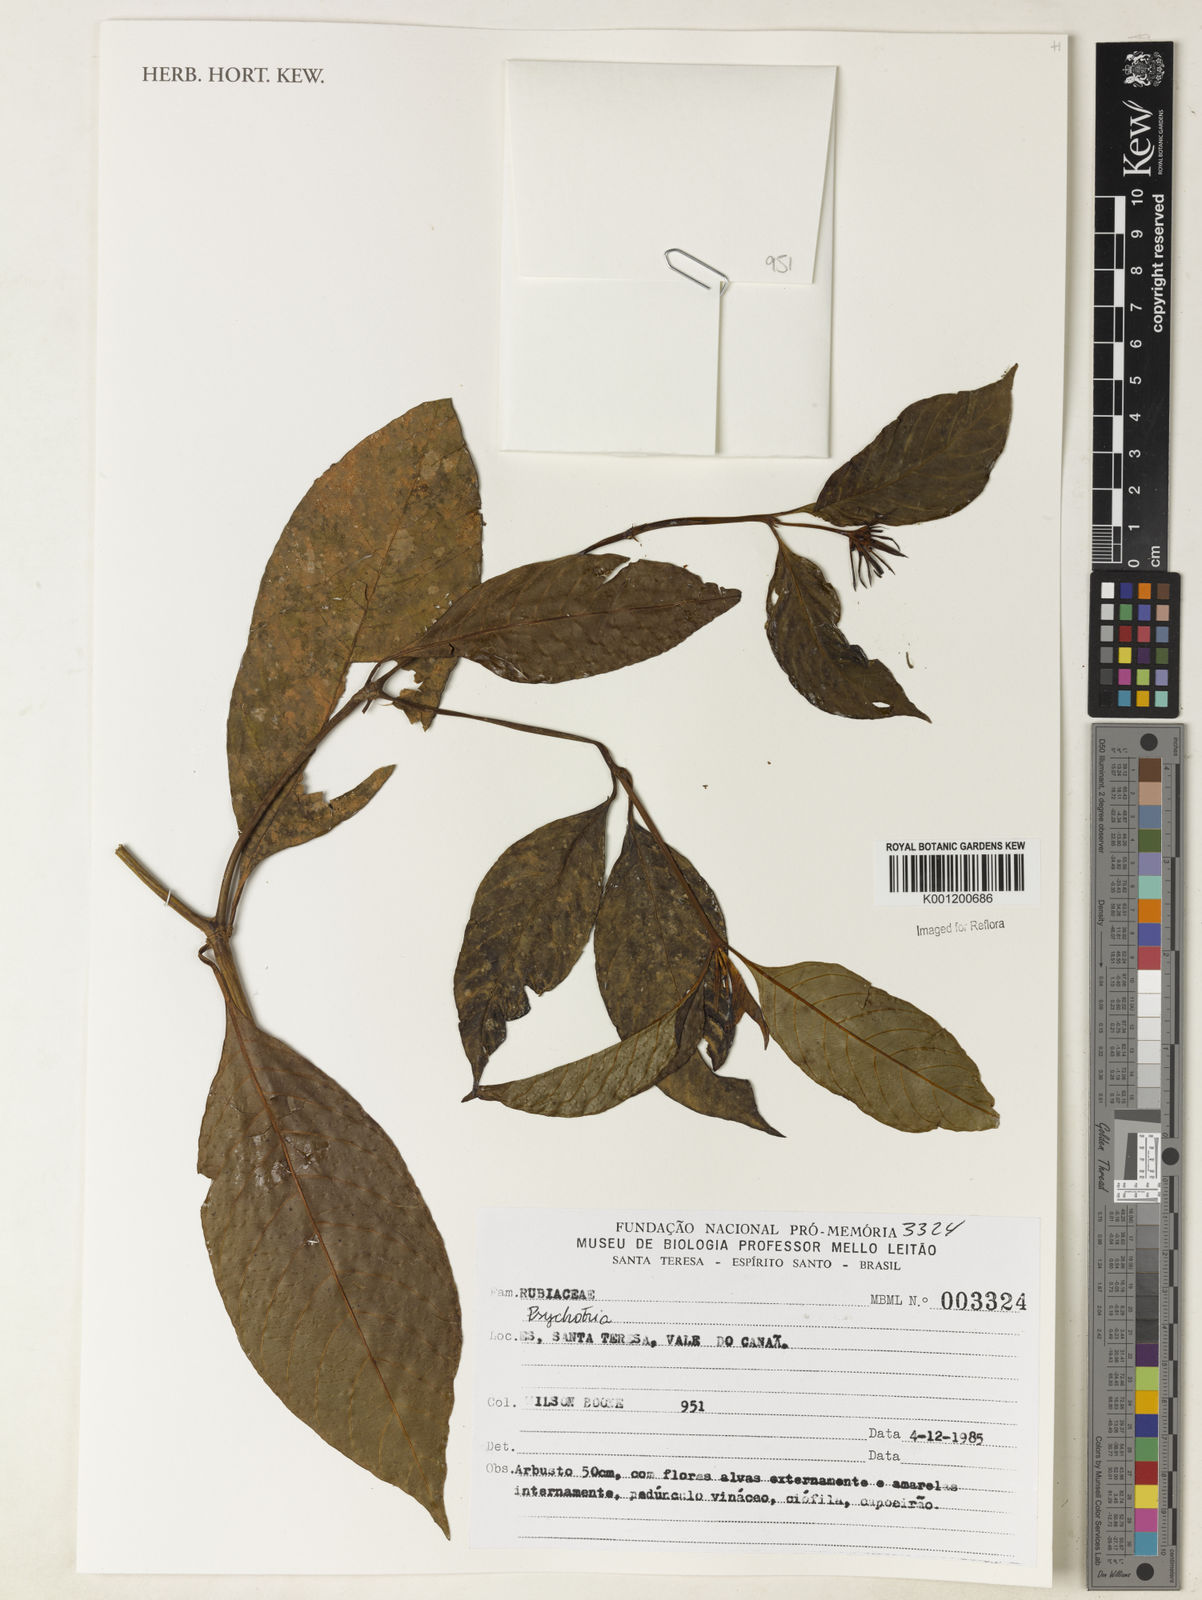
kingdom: Plantae
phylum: Tracheophyta
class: Magnoliopsida
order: Gentianales
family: Rubiaceae
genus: Psychotria
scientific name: Psychotria
